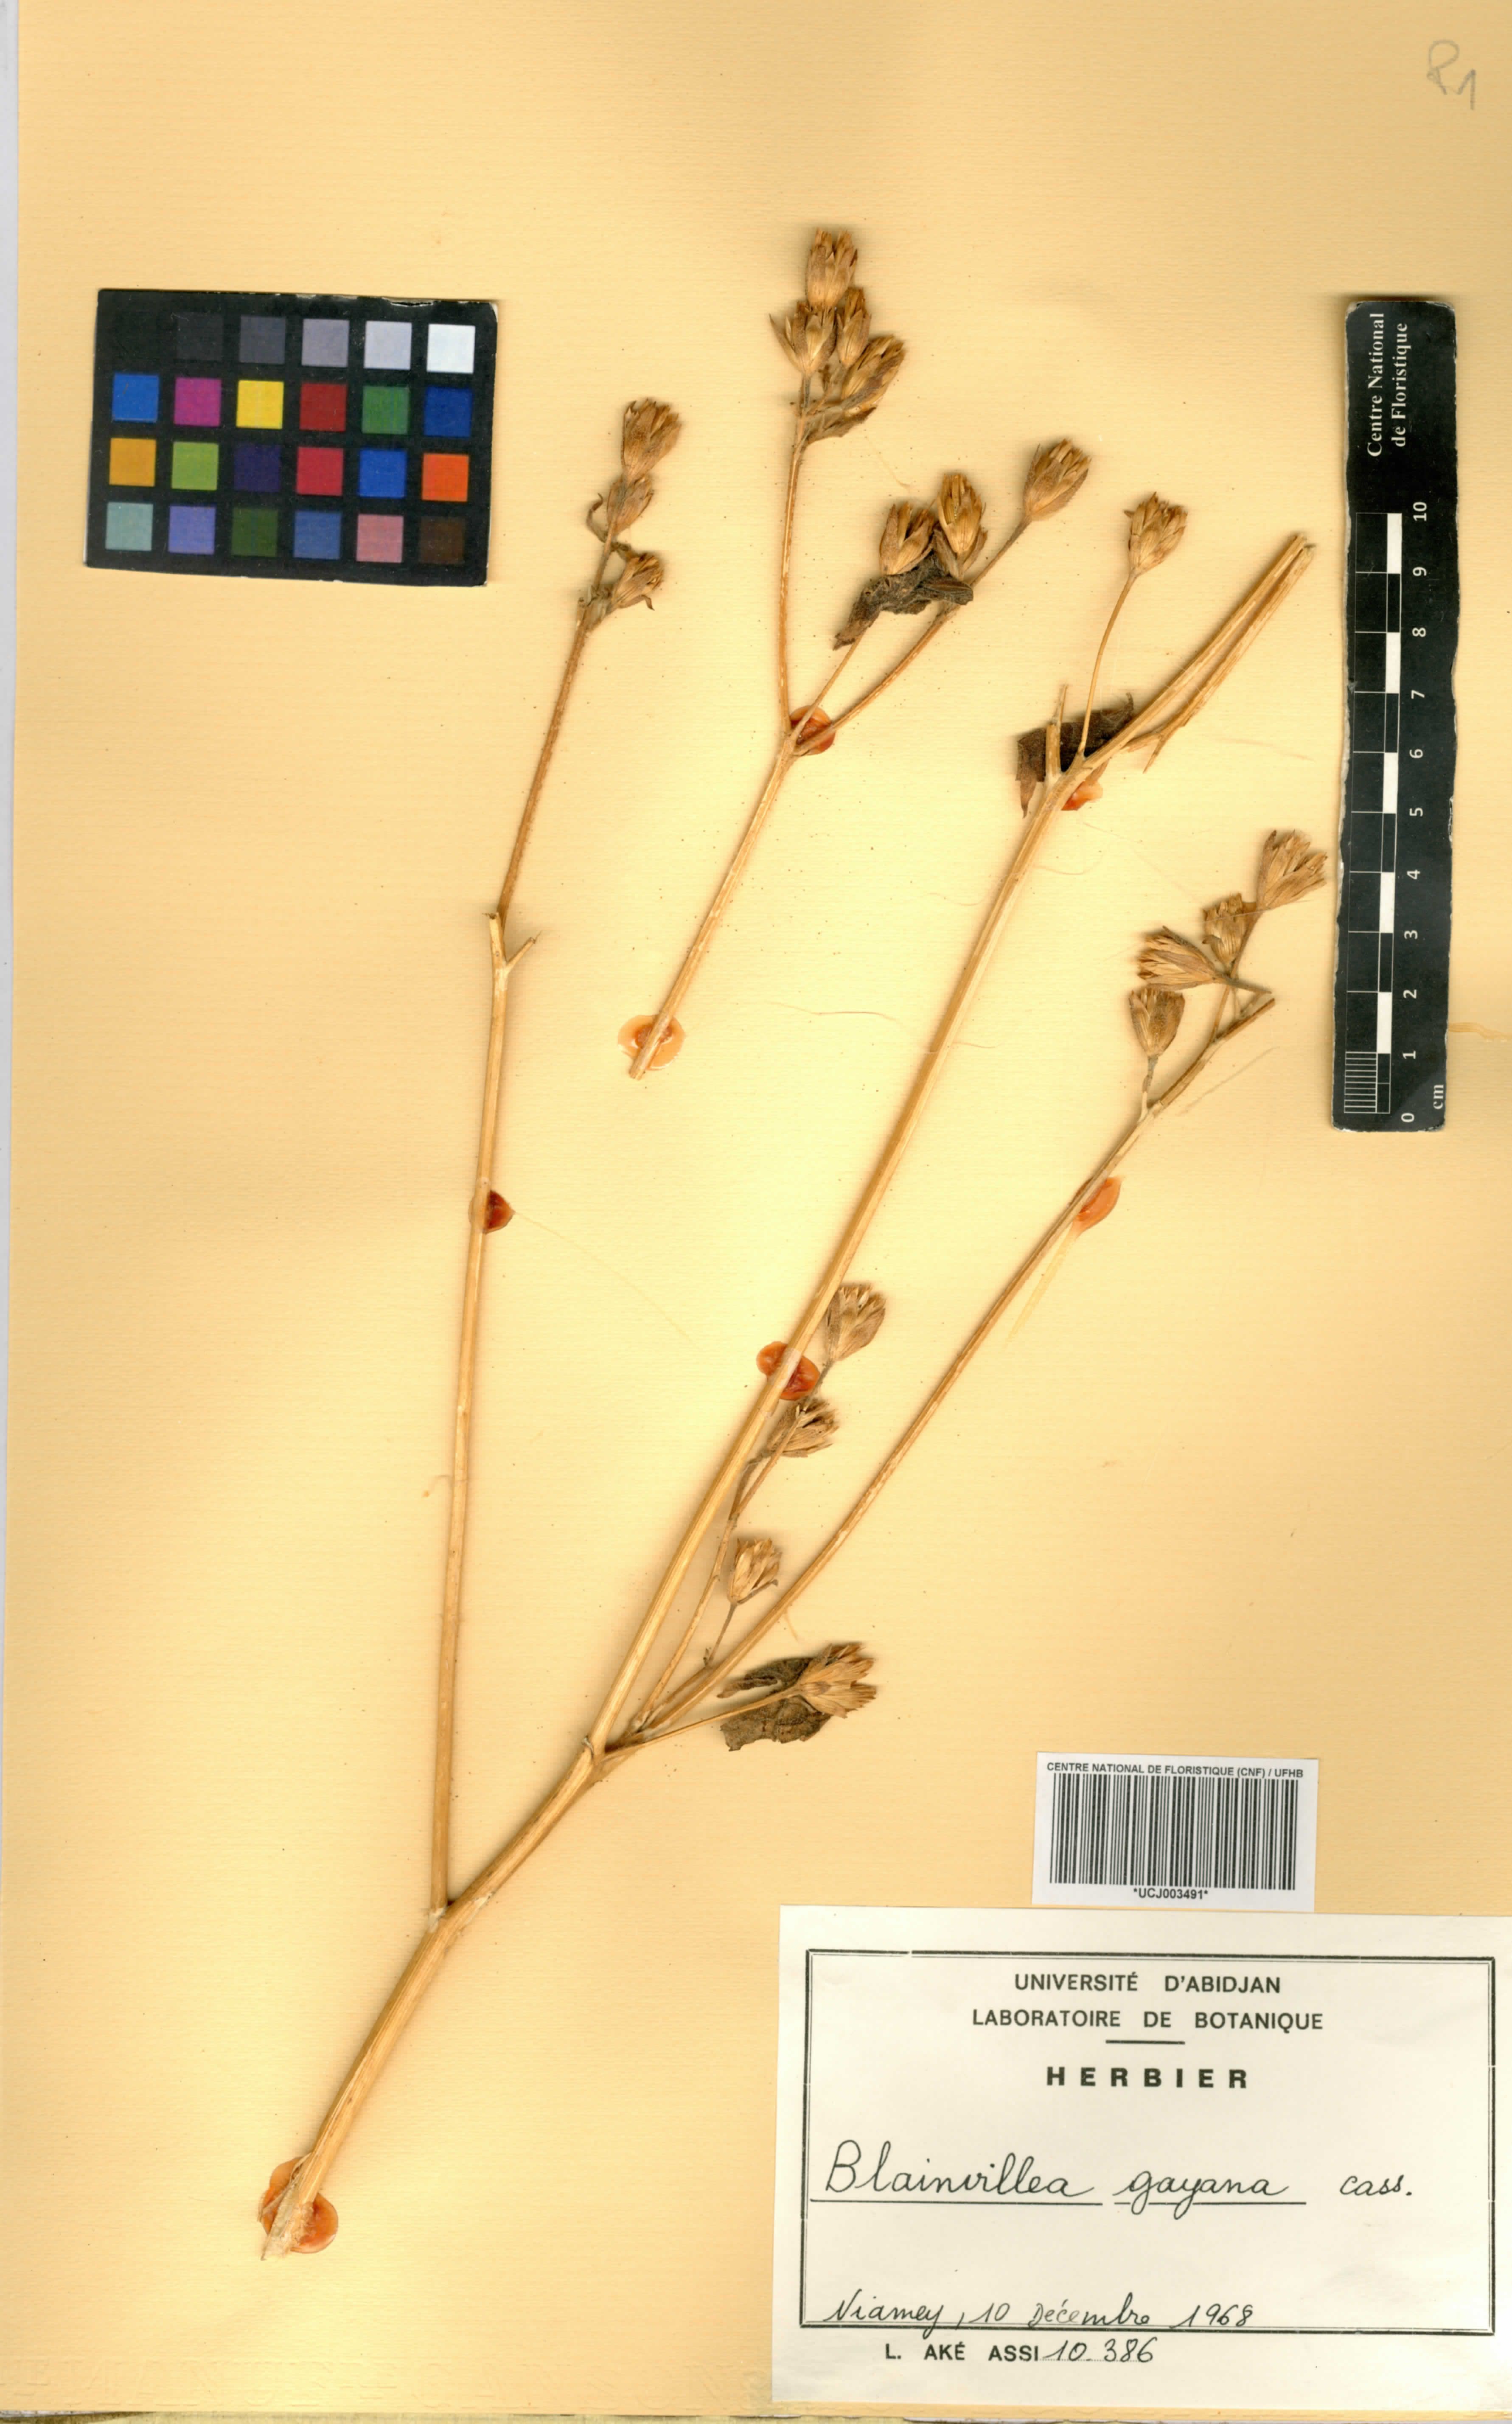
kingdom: Plantae
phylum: Tracheophyta
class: Magnoliopsida
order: Asterales
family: Asteraceae
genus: Blainvillea
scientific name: Blainvillea gayana
